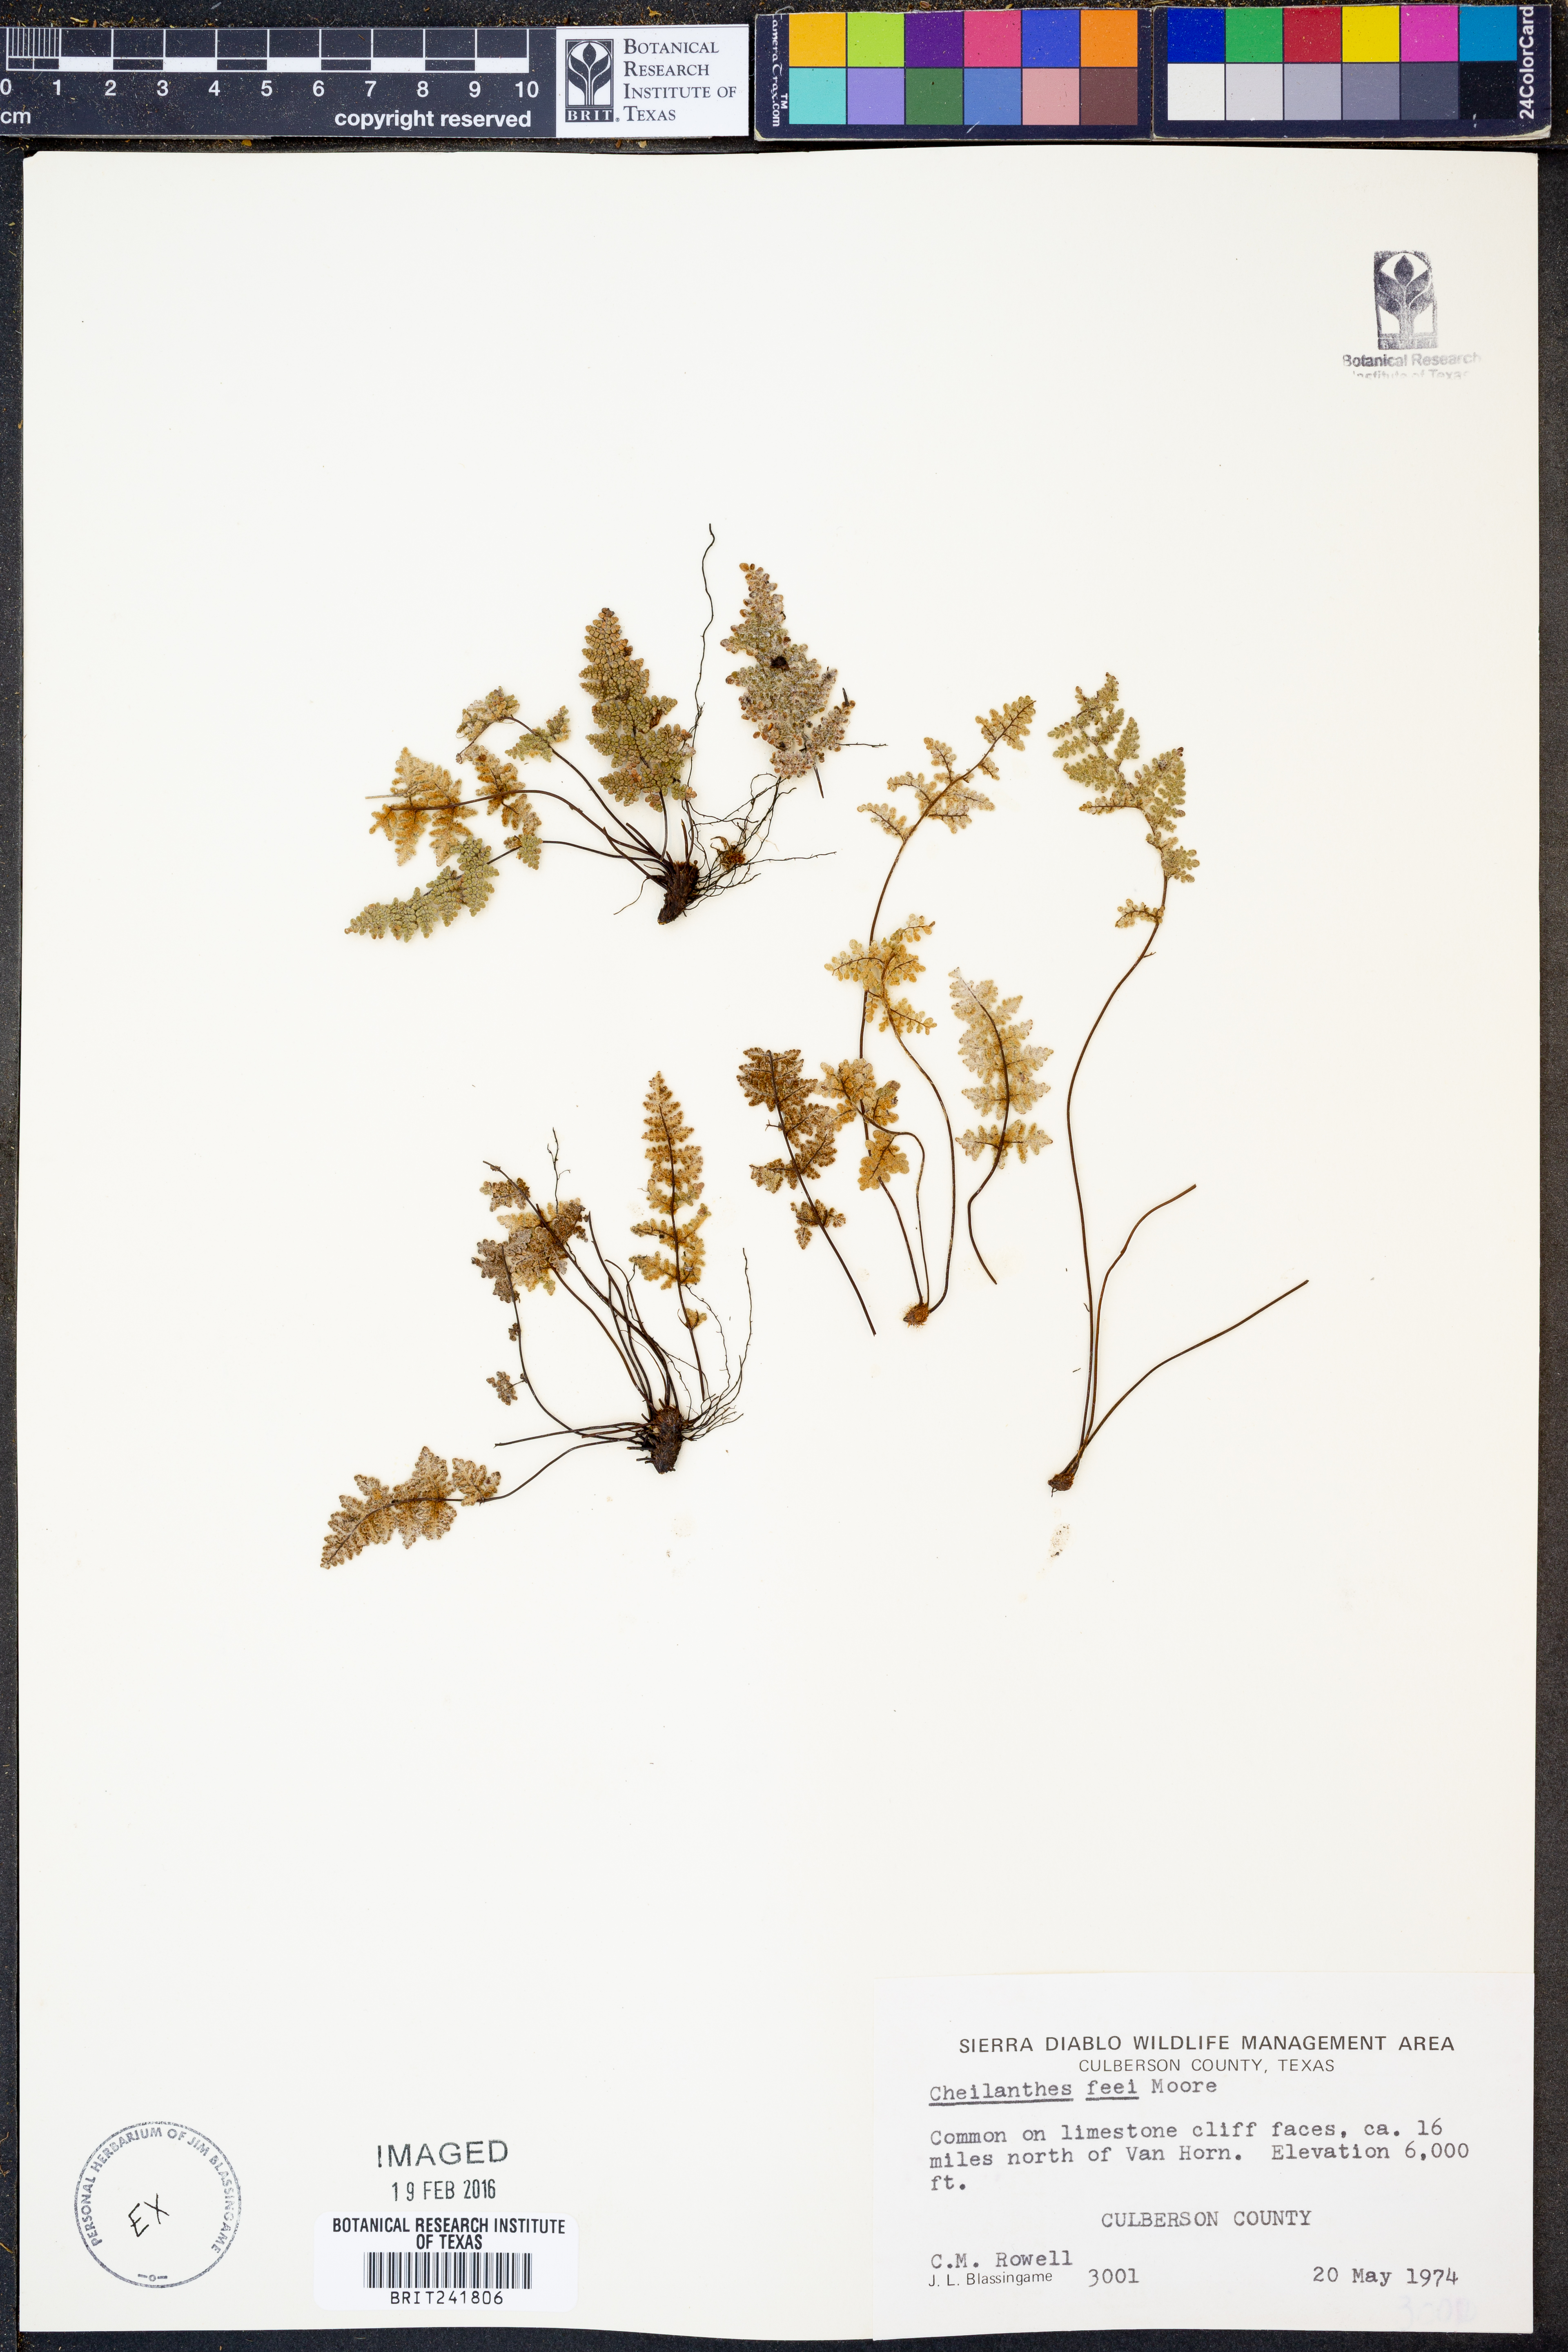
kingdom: Plantae
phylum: Tracheophyta
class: Polypodiopsida
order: Polypodiales
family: Pteridaceae
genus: Myriopteris
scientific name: Myriopteris gracilis
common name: Fee's lip fern
